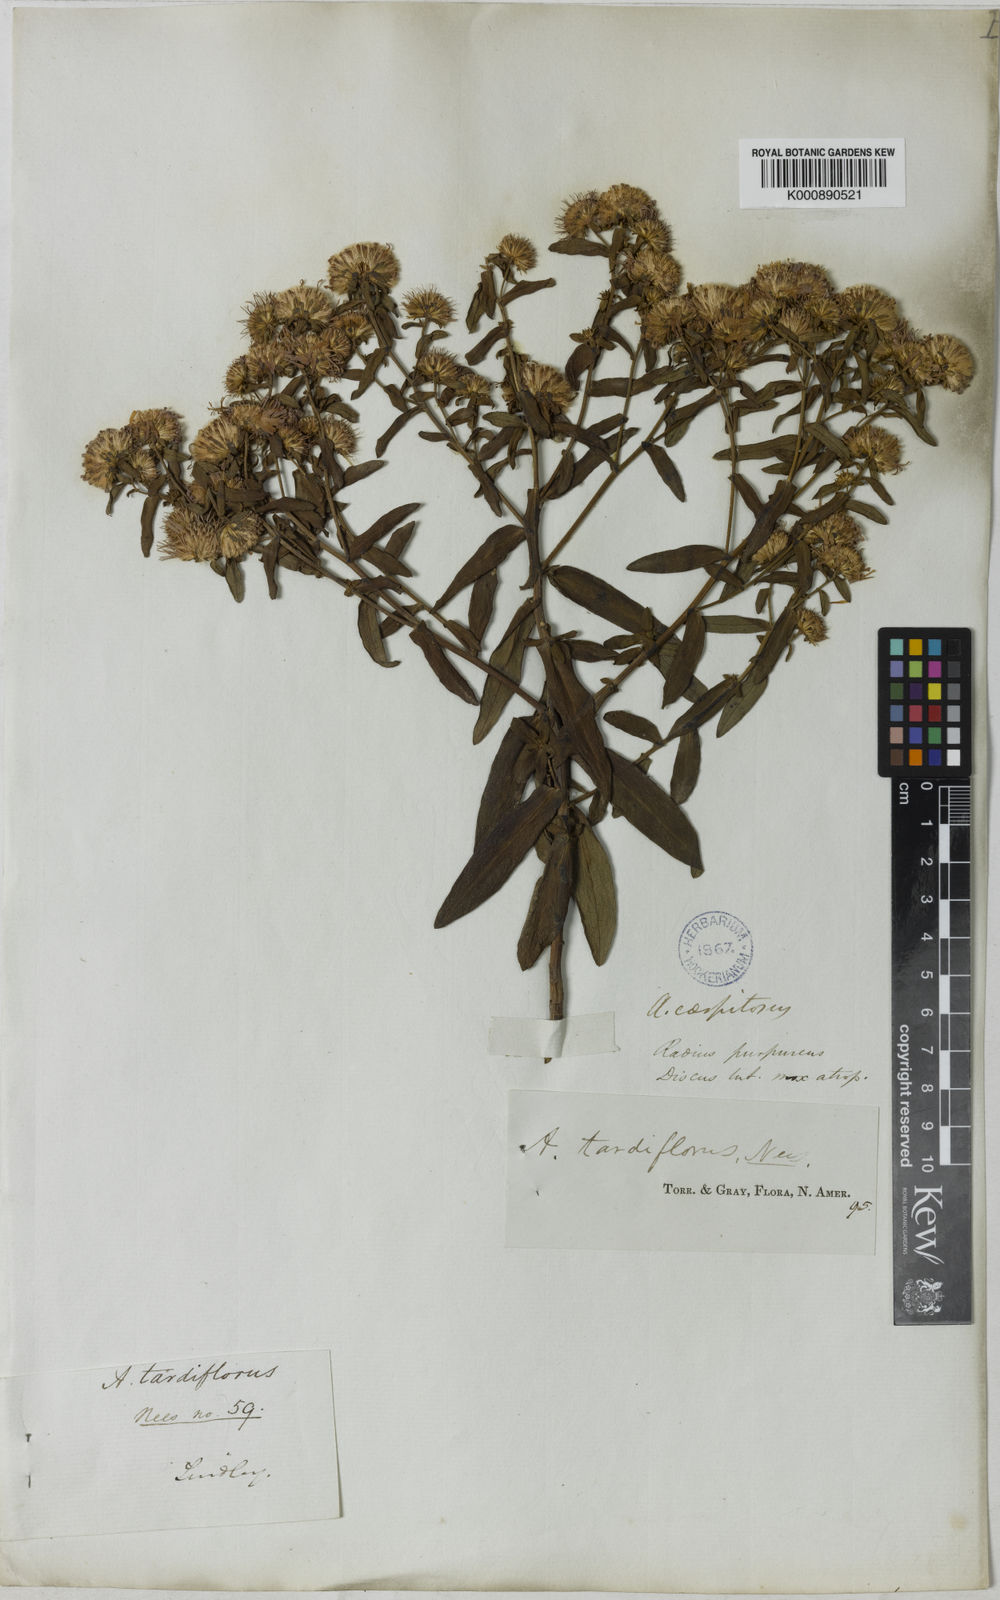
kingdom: Plantae
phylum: Tracheophyta
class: Magnoliopsida
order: Asterales
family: Asteraceae
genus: Symphyotrichum
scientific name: Symphyotrichum novi-belgii
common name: Michaelmas daisy
